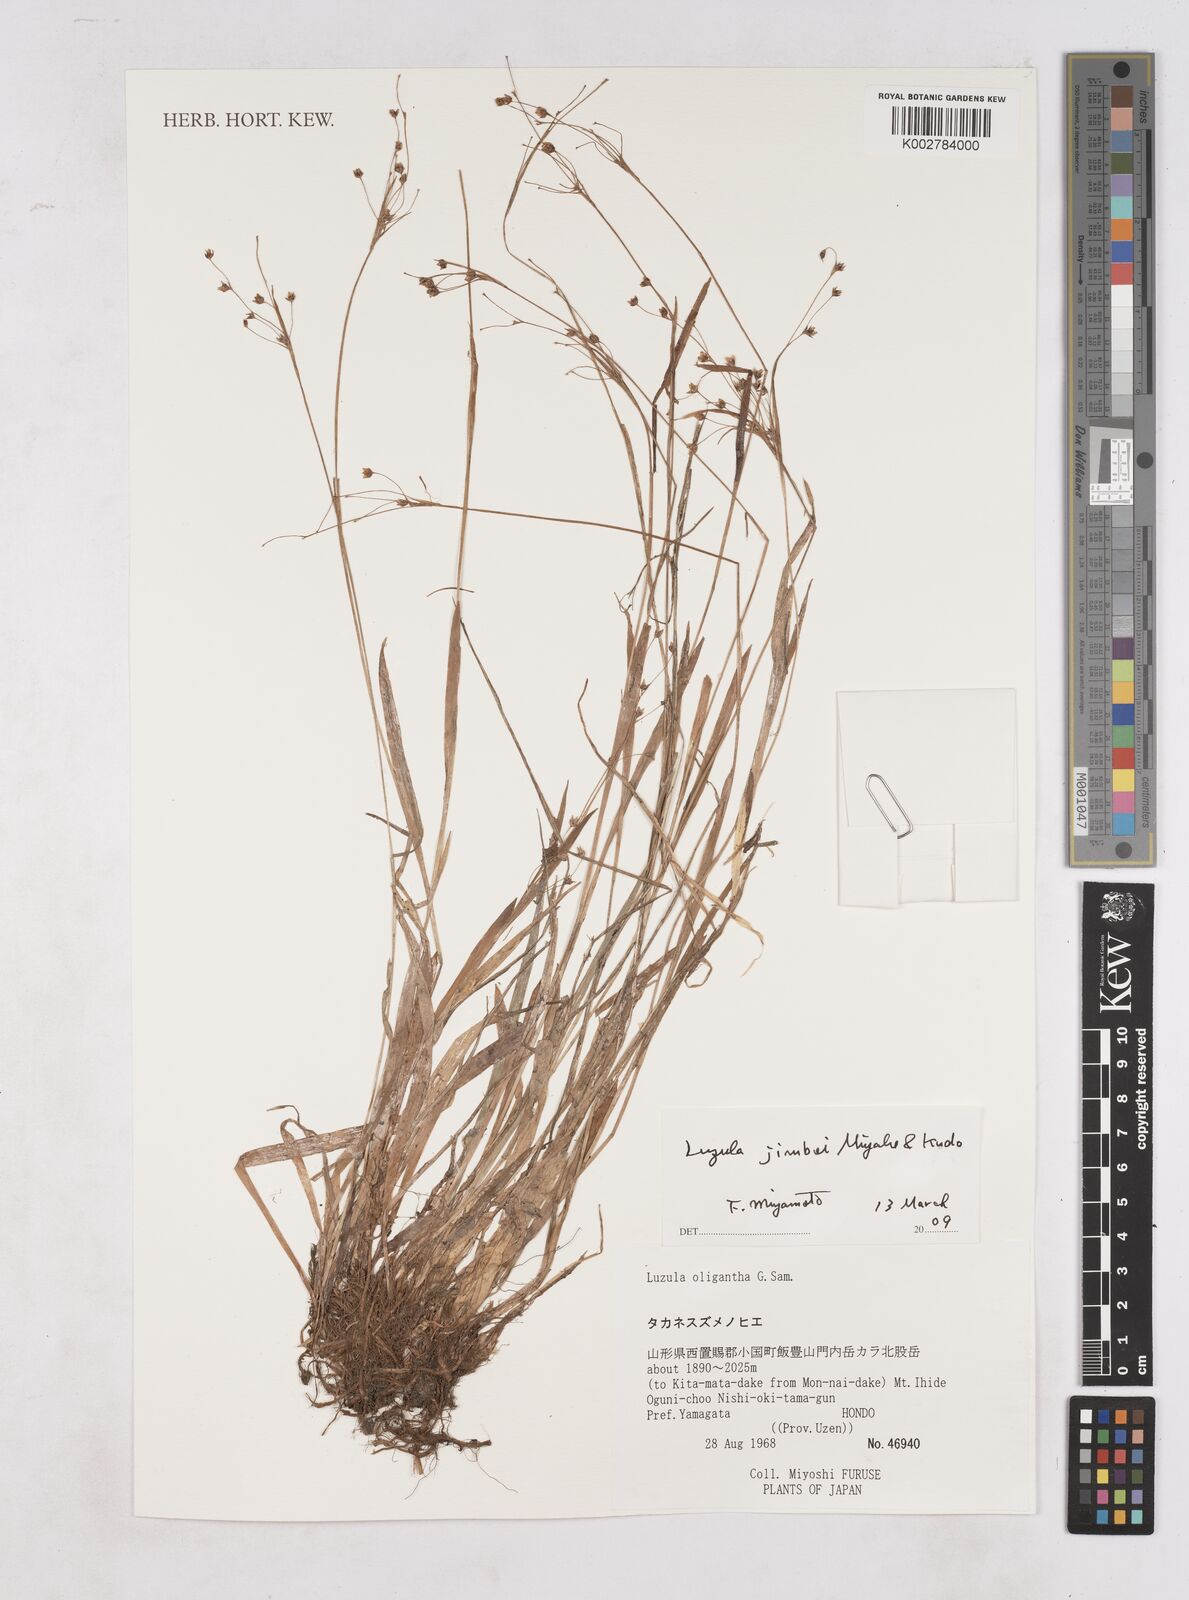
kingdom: Plantae
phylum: Tracheophyta
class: Liliopsida
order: Poales
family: Juncaceae
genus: Luzula
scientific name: Luzula jimboi
